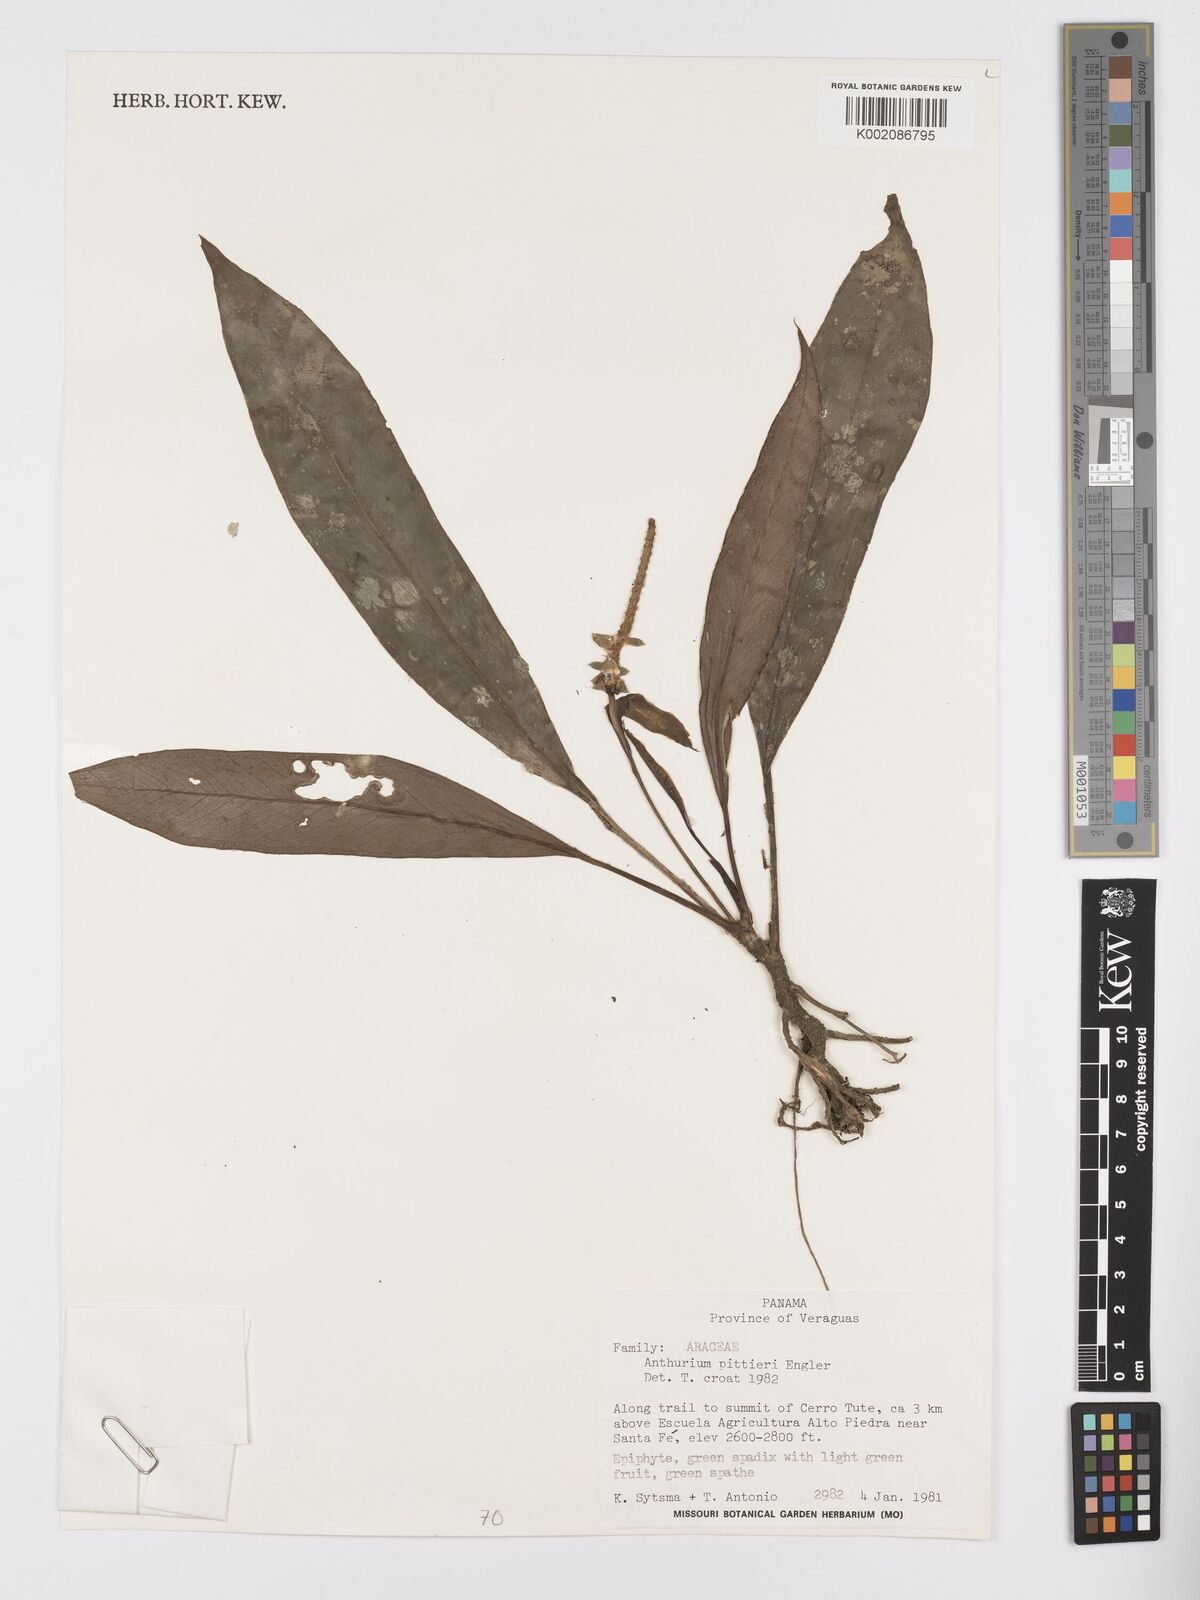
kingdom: Plantae
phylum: Tracheophyta
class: Liliopsida
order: Alismatales
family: Araceae
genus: Anthurium
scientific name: Anthurium pittieri
